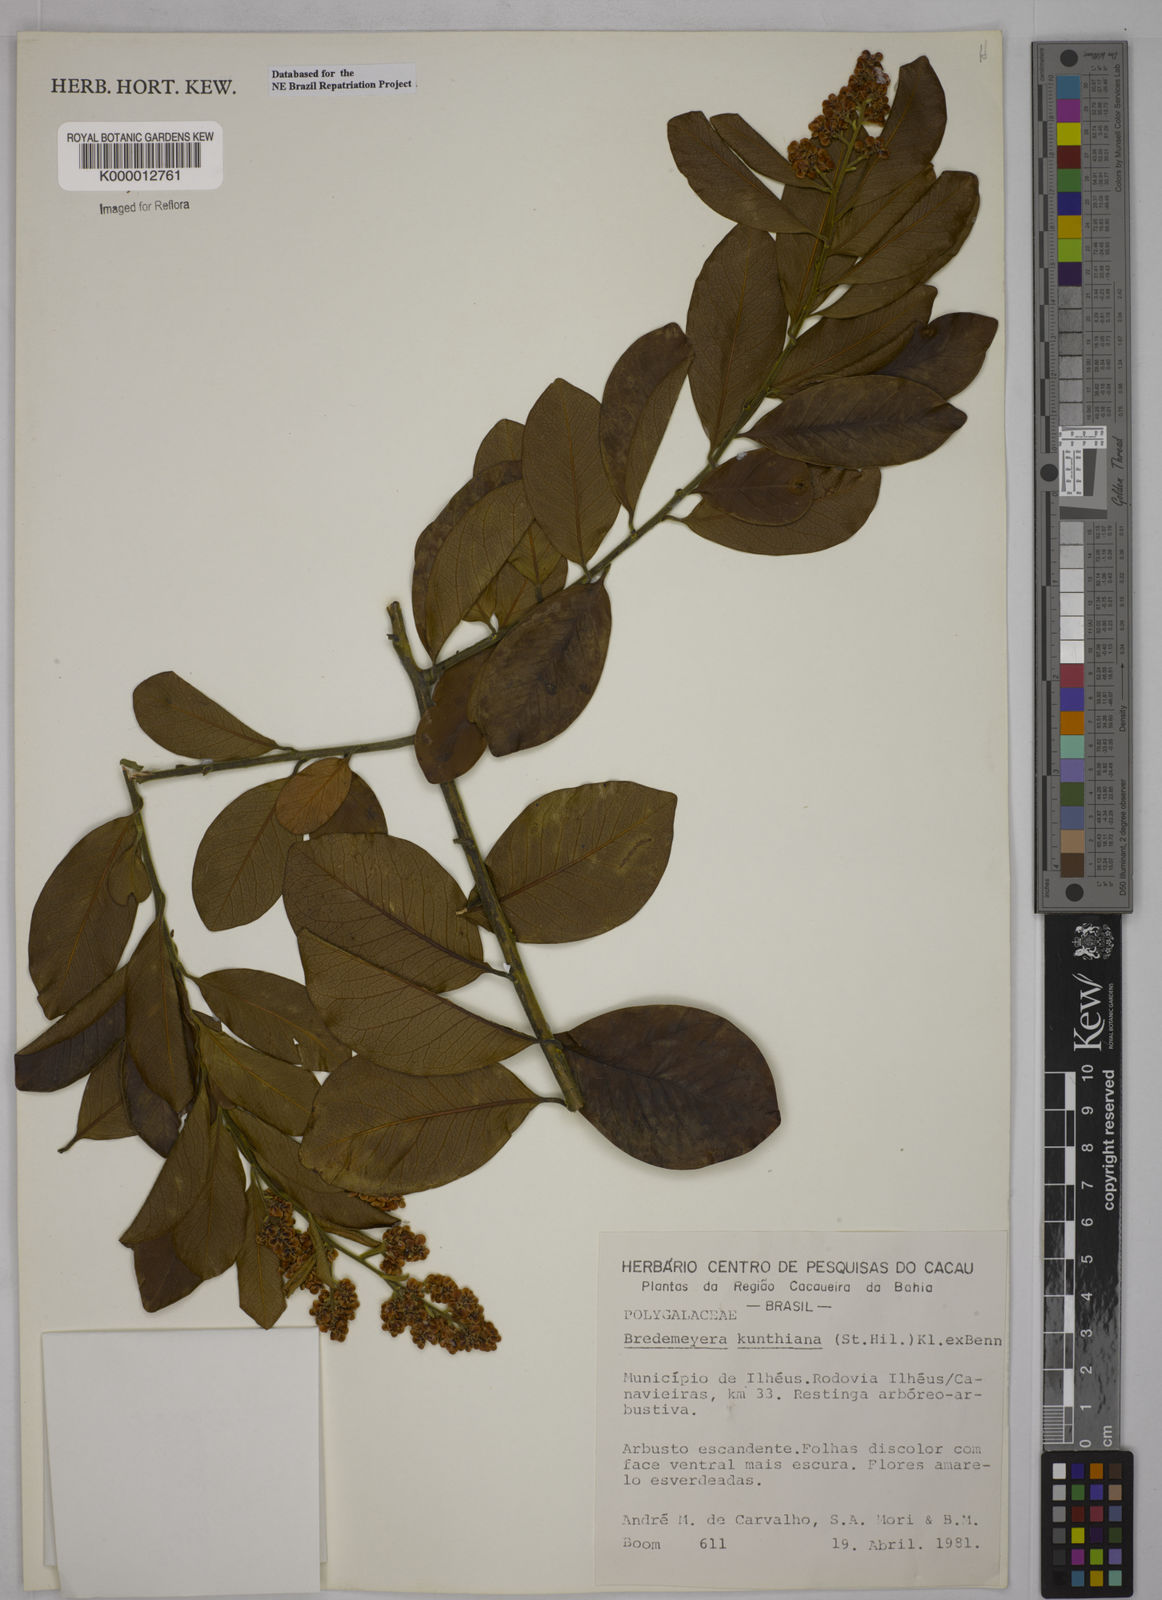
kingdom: Plantae
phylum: Tracheophyta
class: Magnoliopsida
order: Fabales
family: Polygalaceae
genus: Bredemeyera
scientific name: Bredemeyera hebeclada
